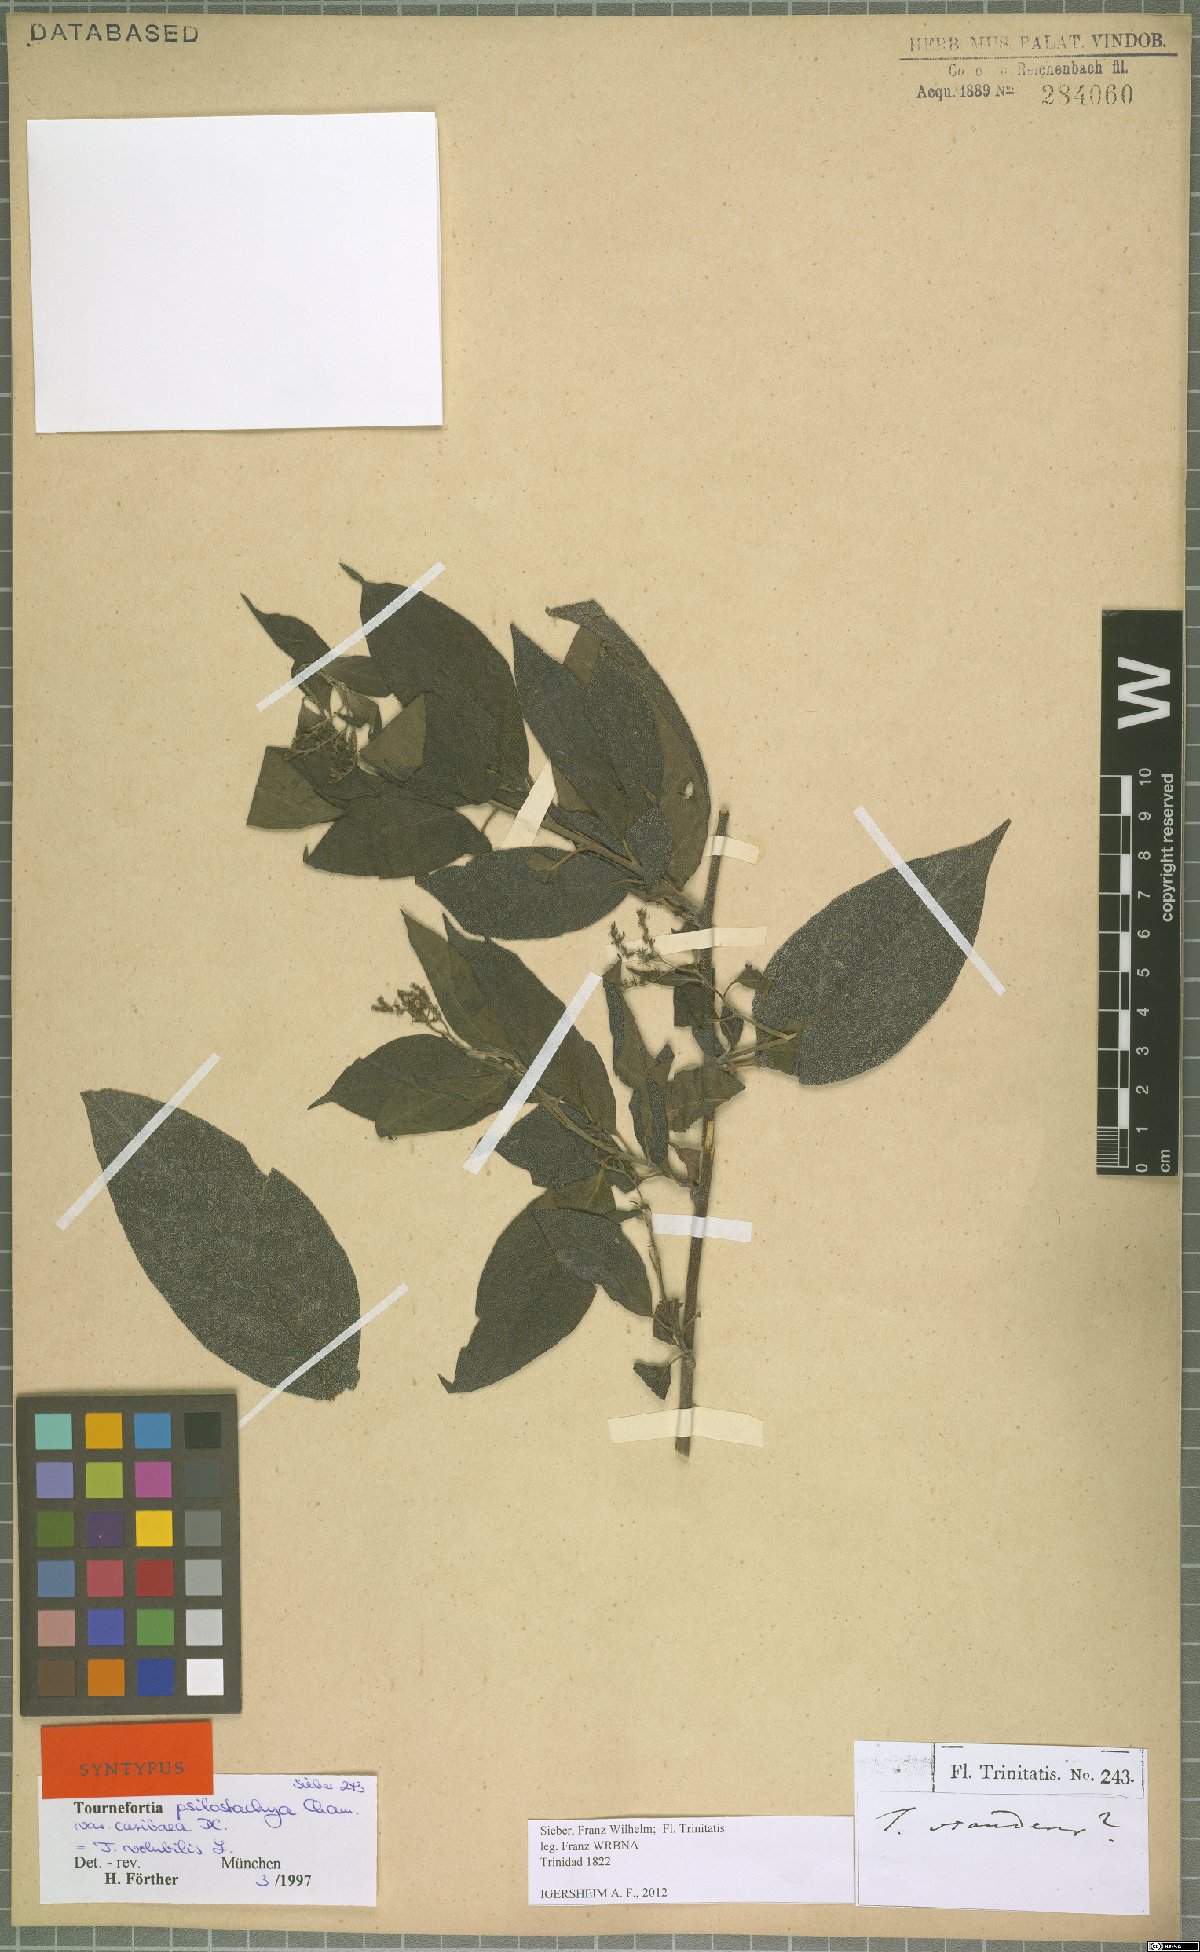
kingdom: Plantae
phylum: Tracheophyta
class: Magnoliopsida
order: Boraginales
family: Heliotropiaceae
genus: Myriopus
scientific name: Myriopus volubilis
